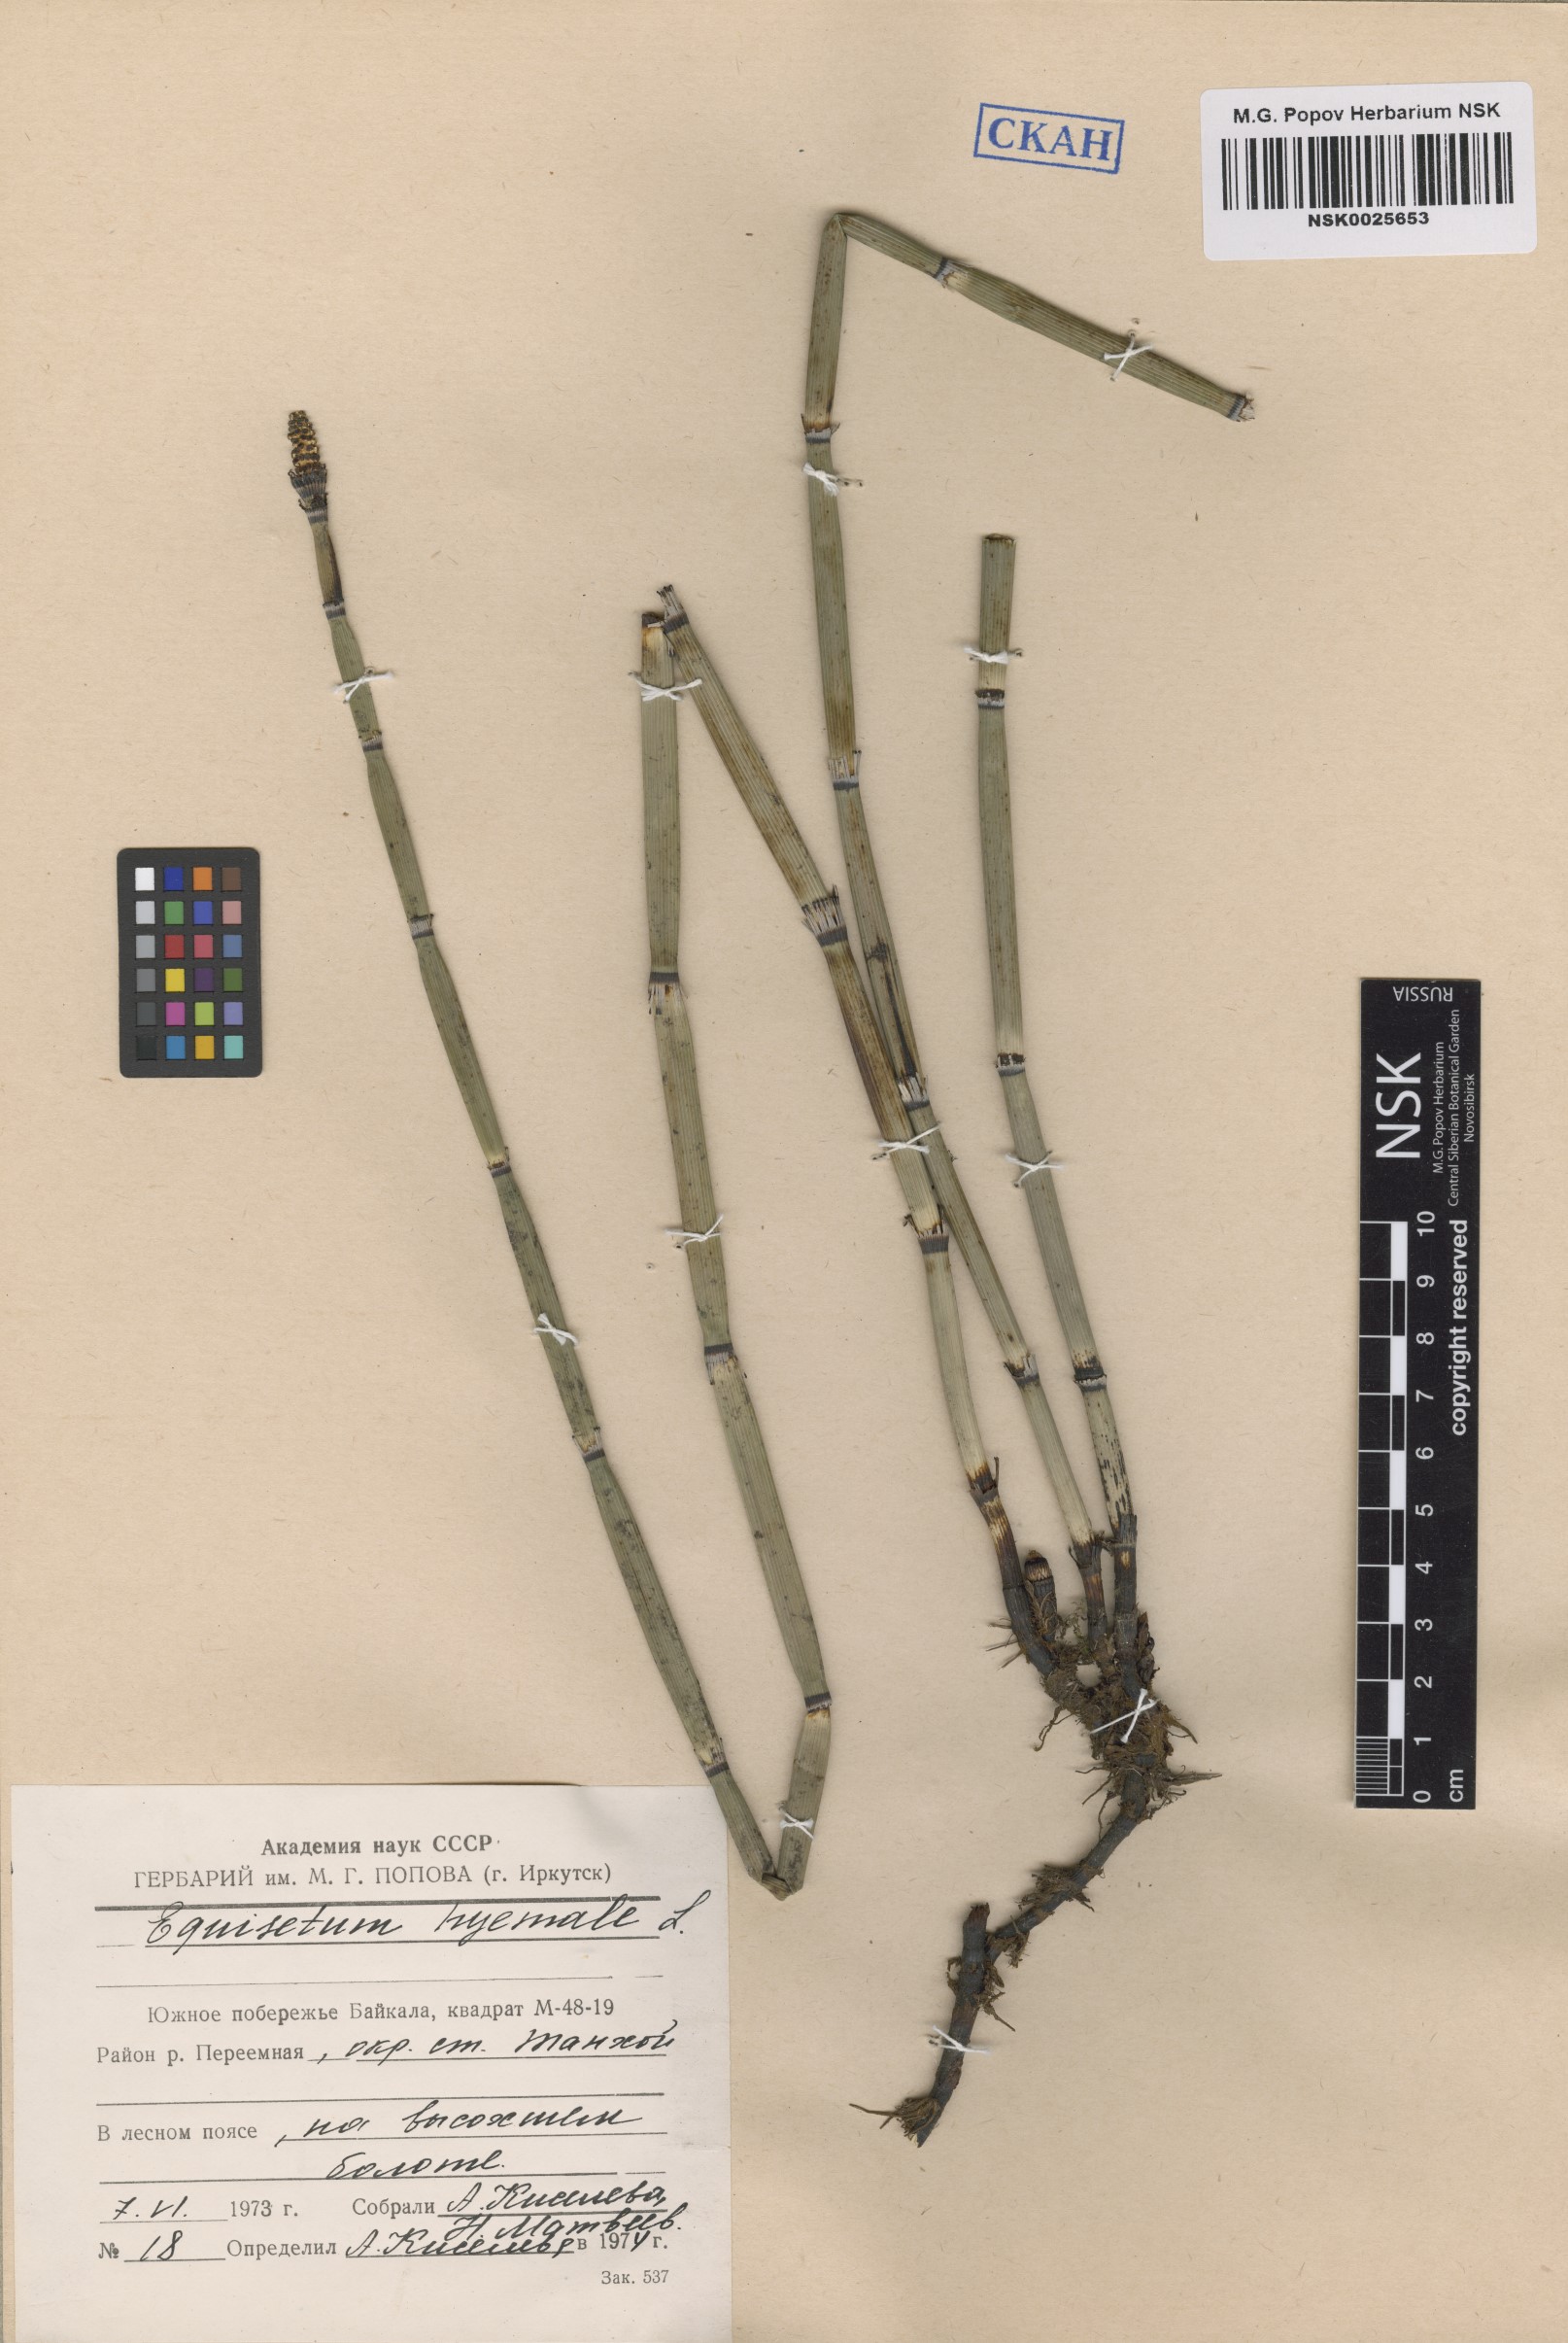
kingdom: Plantae
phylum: Tracheophyta
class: Polypodiopsida
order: Equisetales
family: Equisetaceae
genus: Equisetum
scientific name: Equisetum hyemale
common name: Rough horsetail
